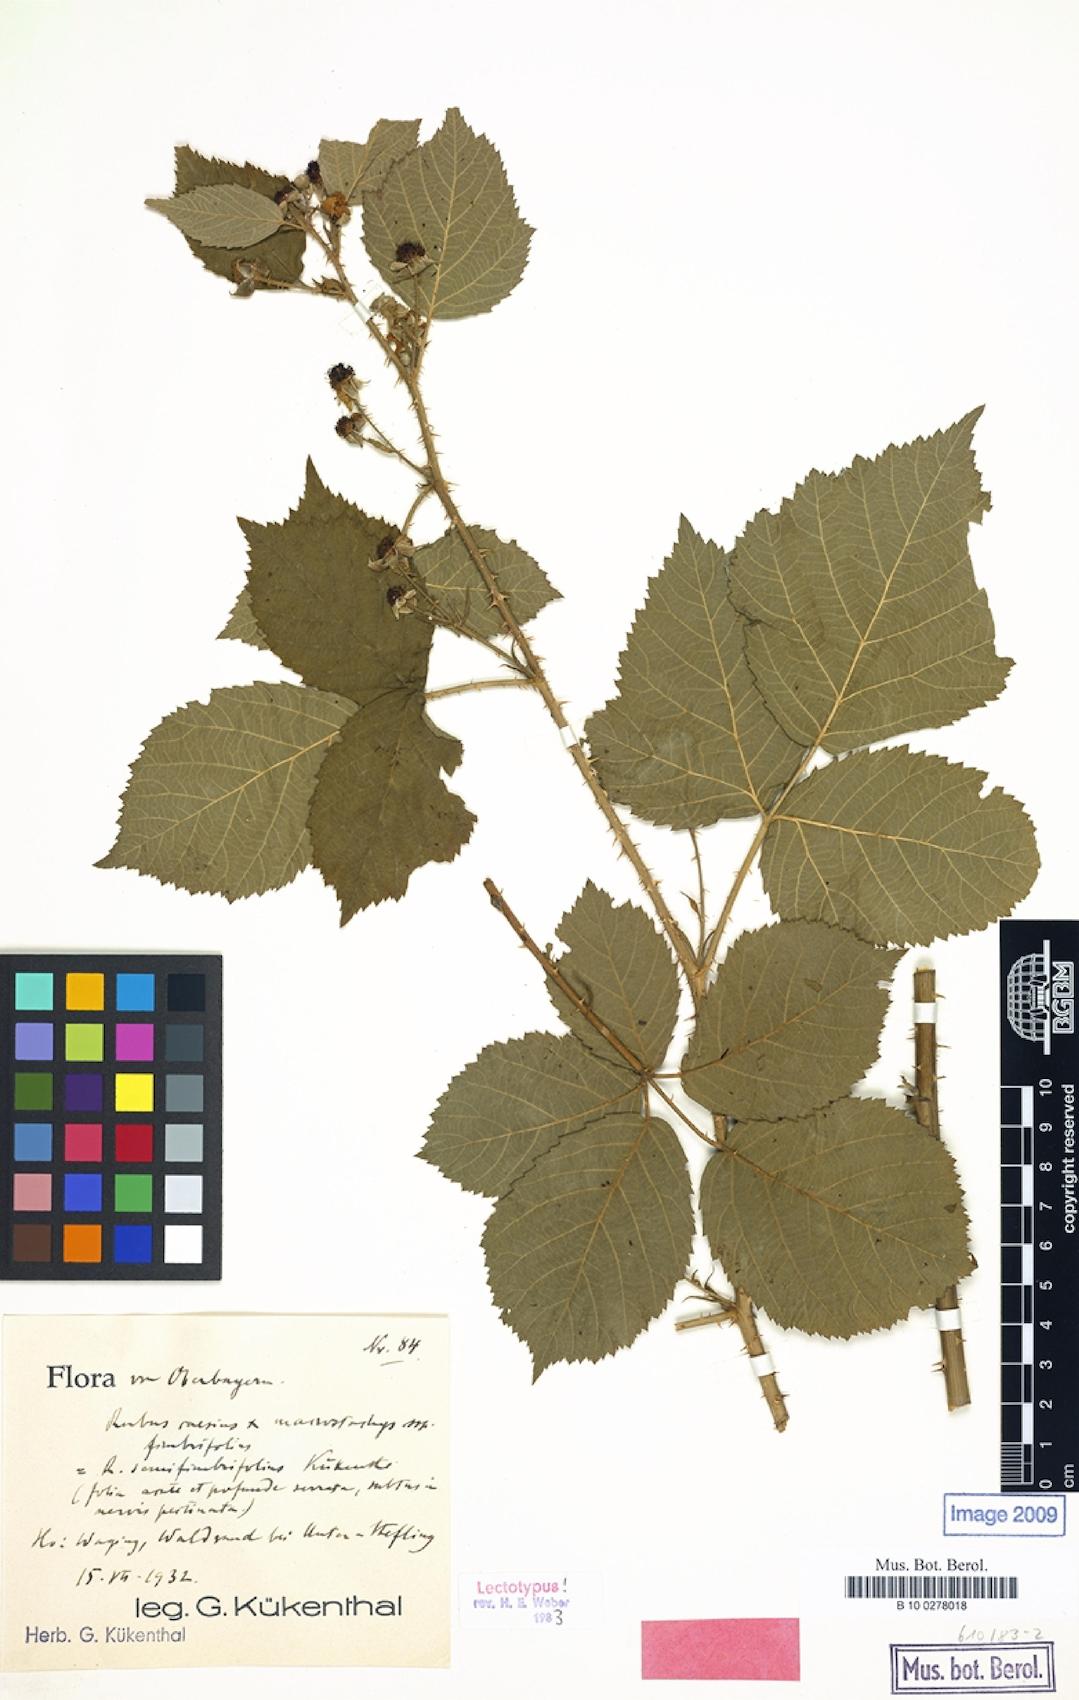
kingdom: Plantae
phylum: Tracheophyta
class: Magnoliopsida
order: Rosales
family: Rosaceae
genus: Rubus
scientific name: Rubus semifimbrifolius
